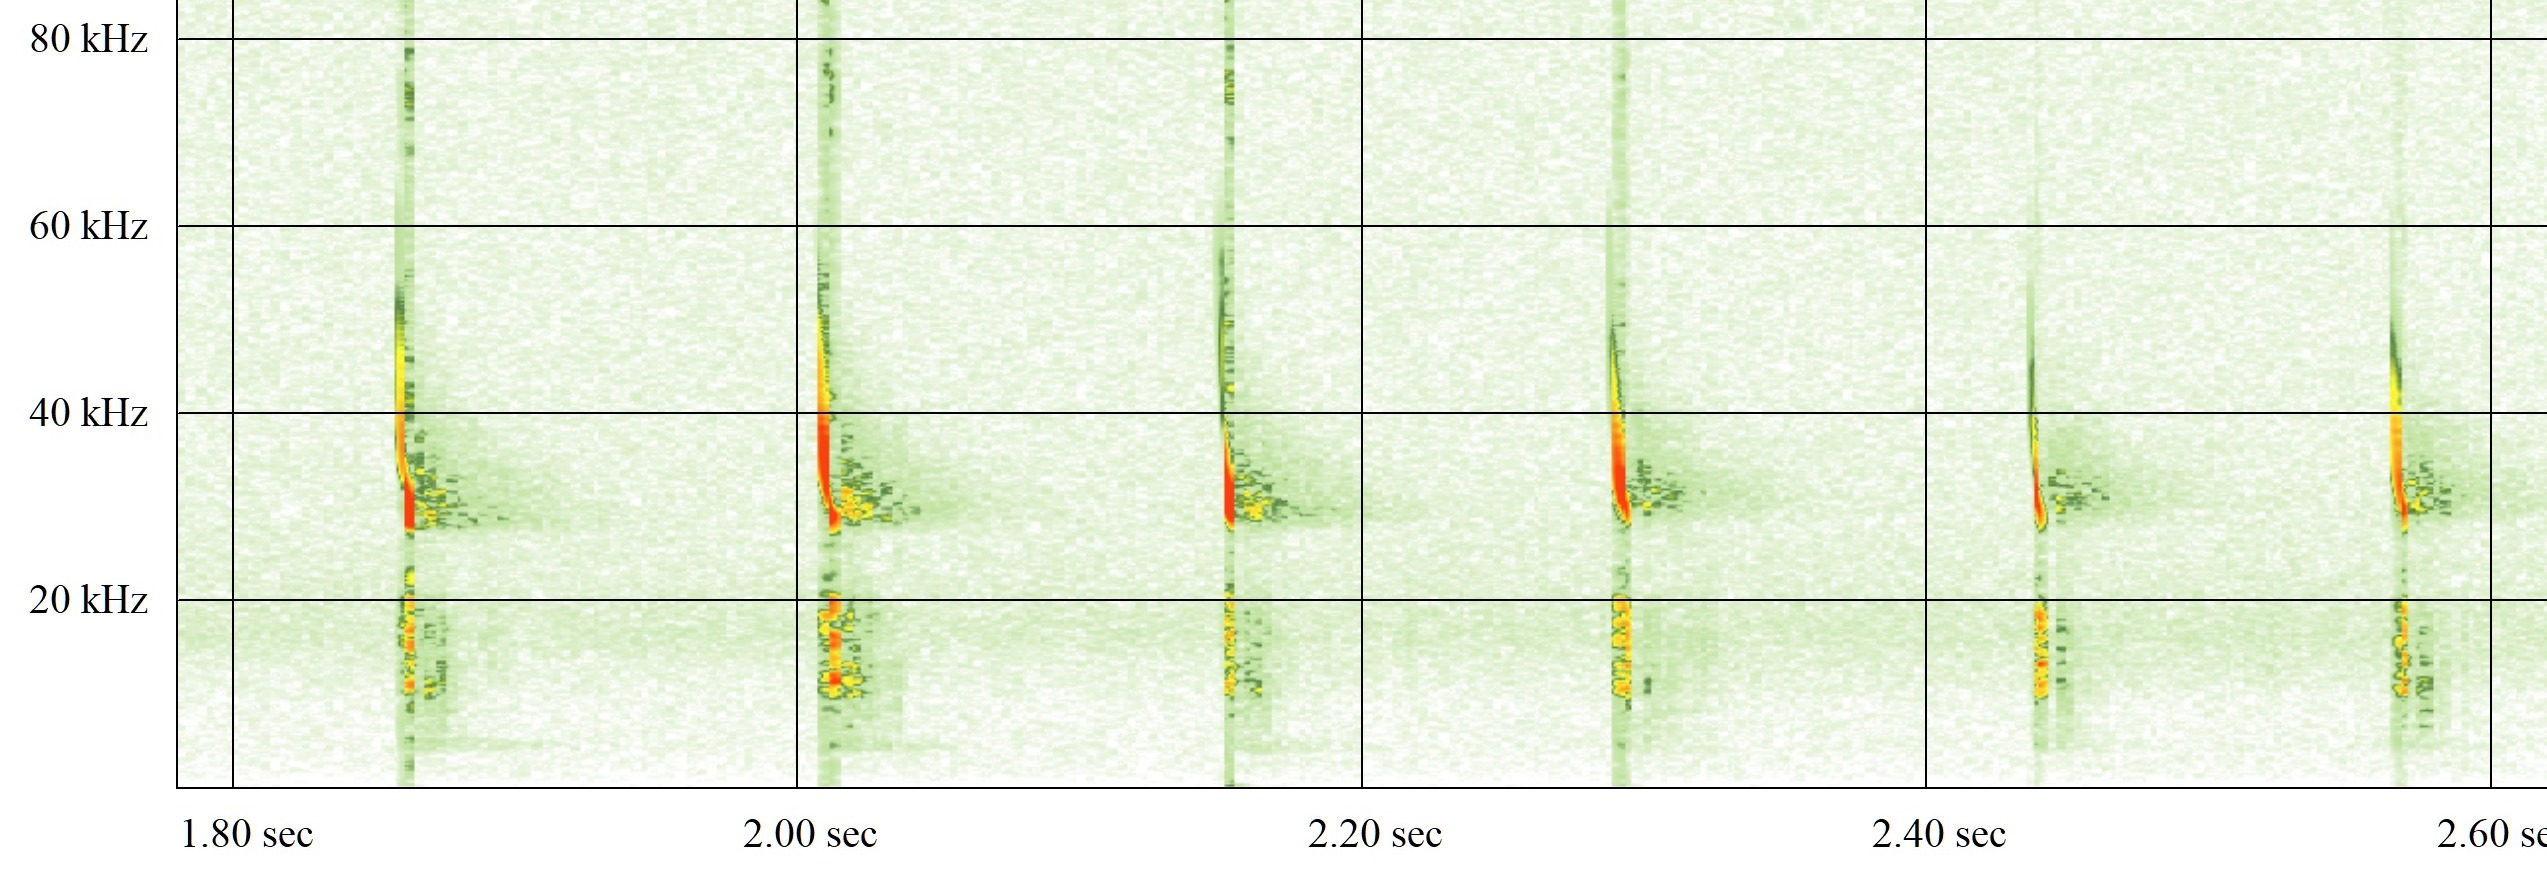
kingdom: Animalia
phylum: Chordata
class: Mammalia
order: Chiroptera
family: Vespertilionidae
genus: Eptesicus
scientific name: Eptesicus serotinus
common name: Sydflagermus
